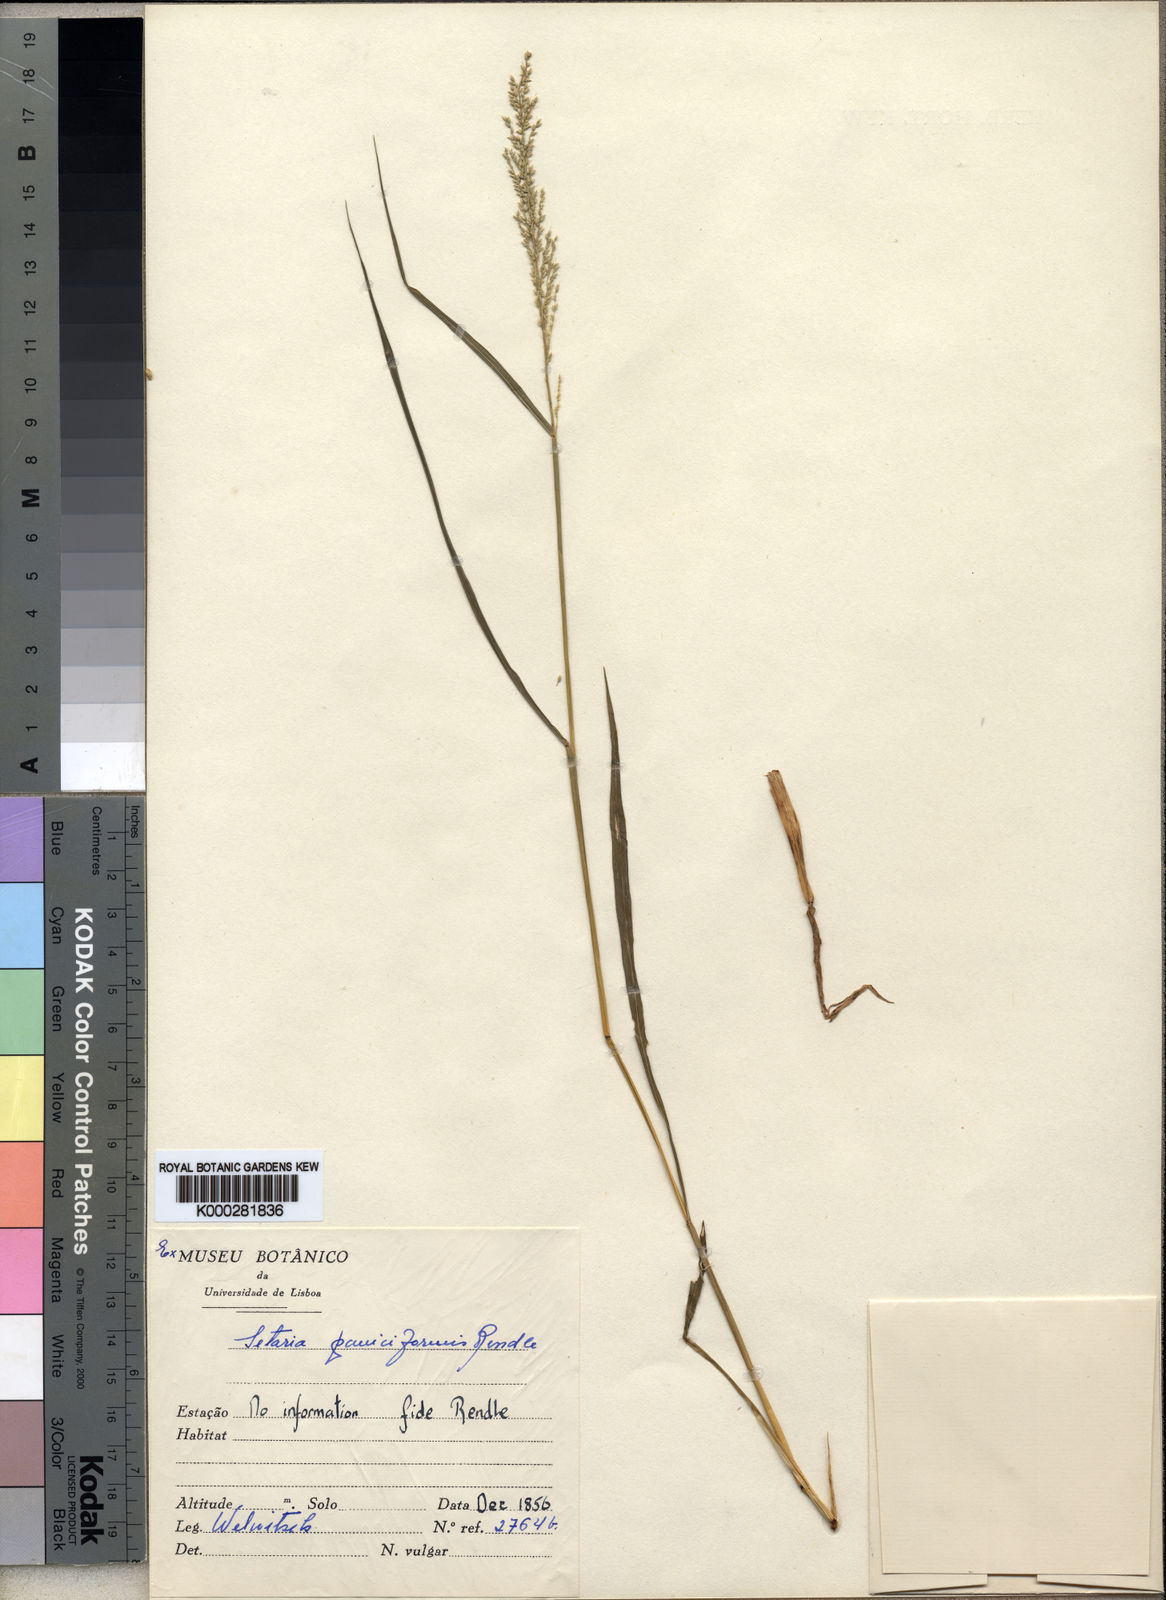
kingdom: Plantae
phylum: Tracheophyta
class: Liliopsida
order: Poales
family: Poaceae
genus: Setaria
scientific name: Setaria longiseta
